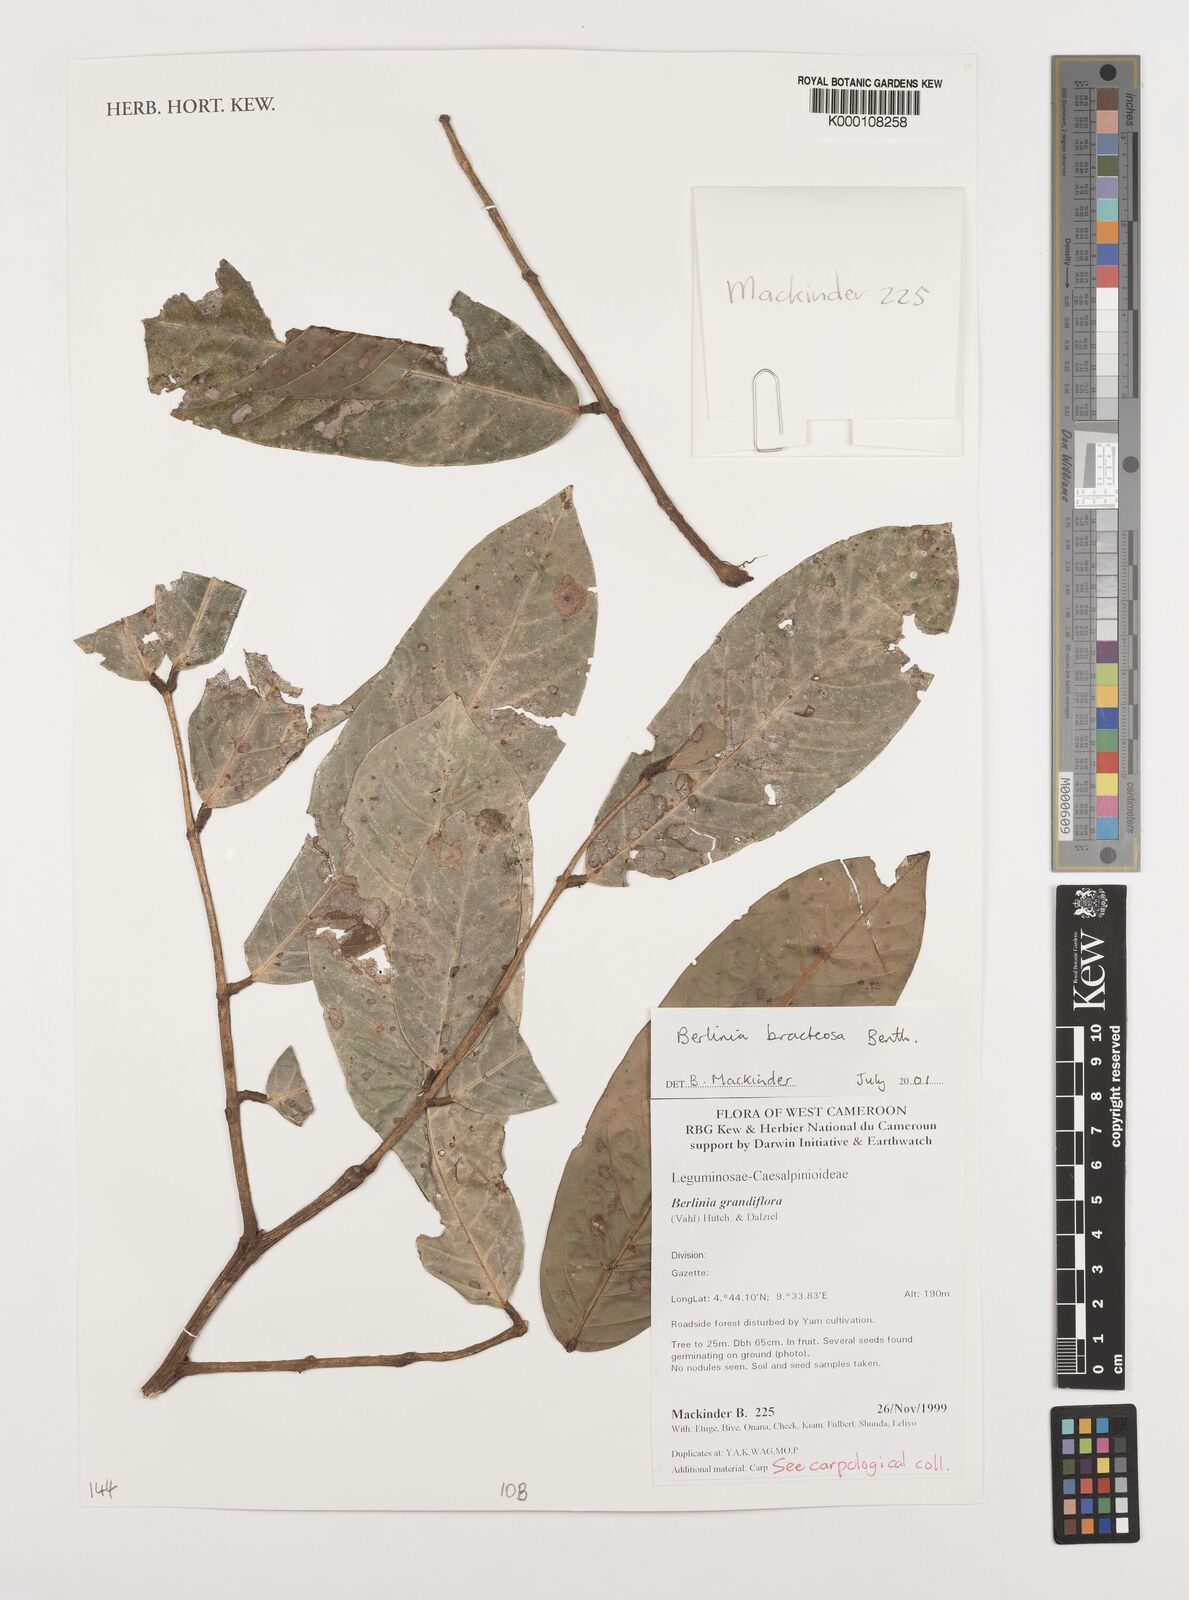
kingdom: Plantae
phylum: Tracheophyta
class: Magnoliopsida
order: Fabales
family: Fabaceae
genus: Berlinia
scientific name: Berlinia bracteosa
